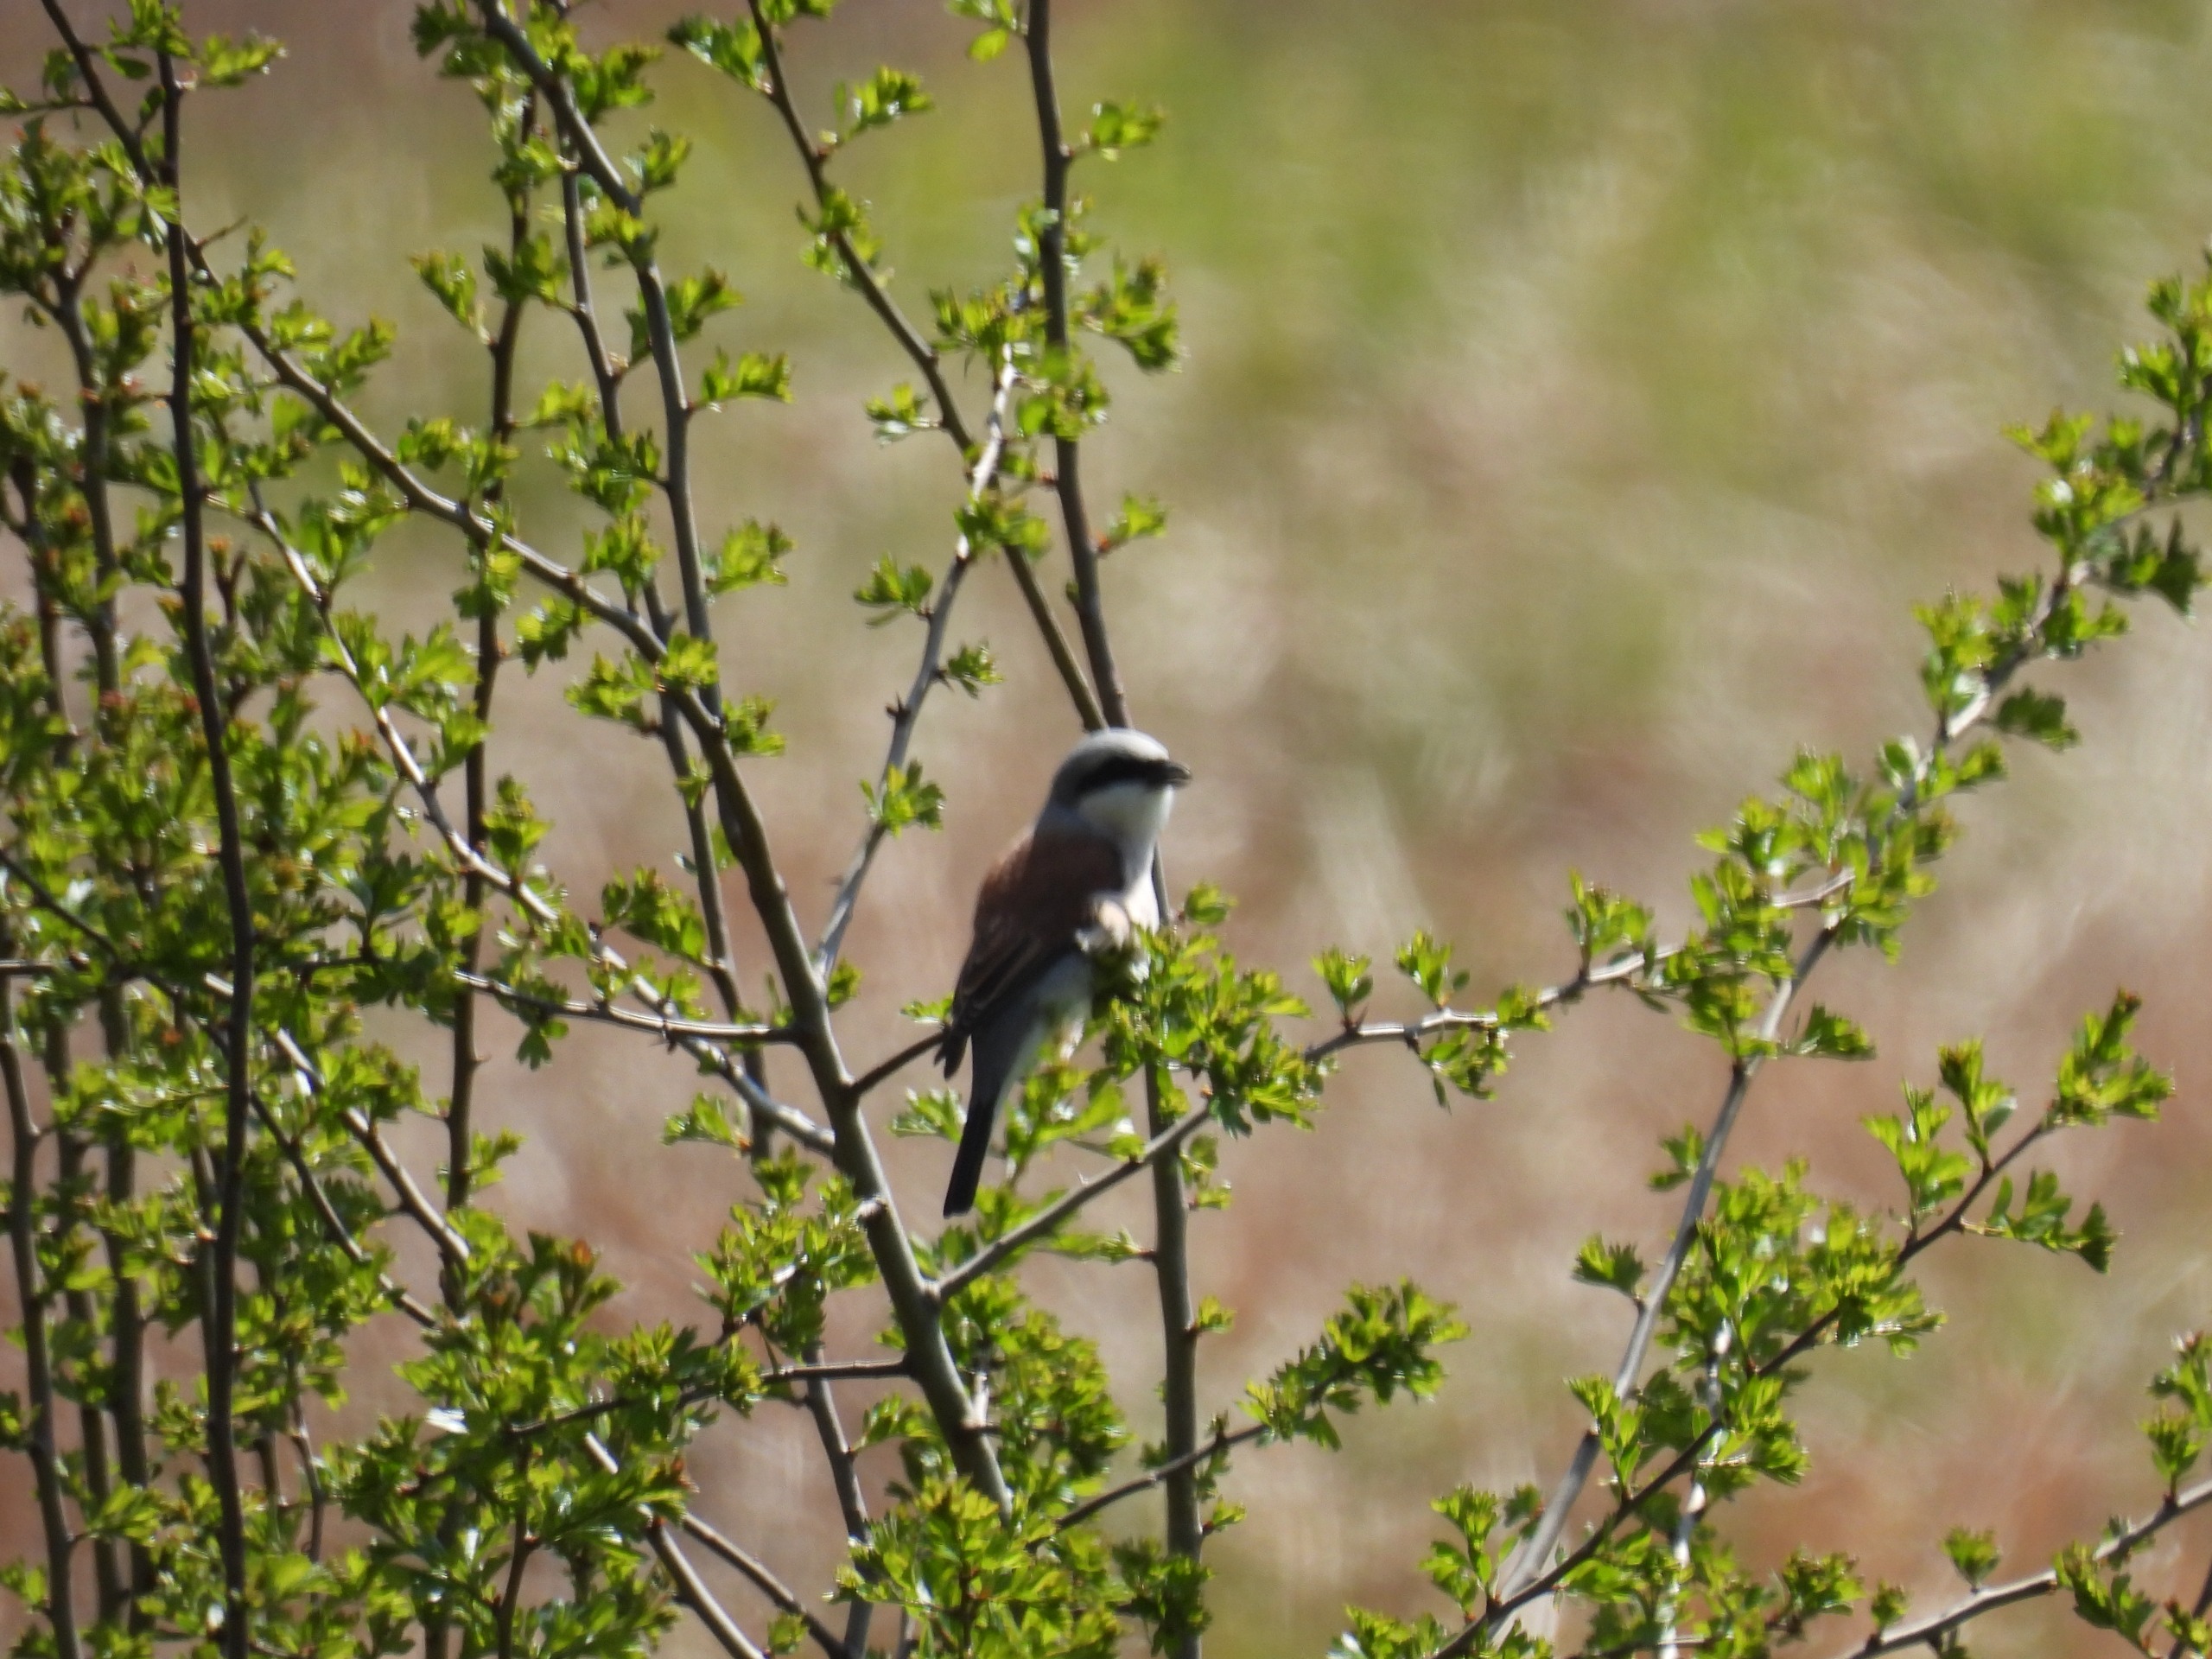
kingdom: Animalia
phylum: Chordata
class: Aves
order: Passeriformes
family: Laniidae
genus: Lanius
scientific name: Lanius collurio
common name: Rødrygget tornskade
